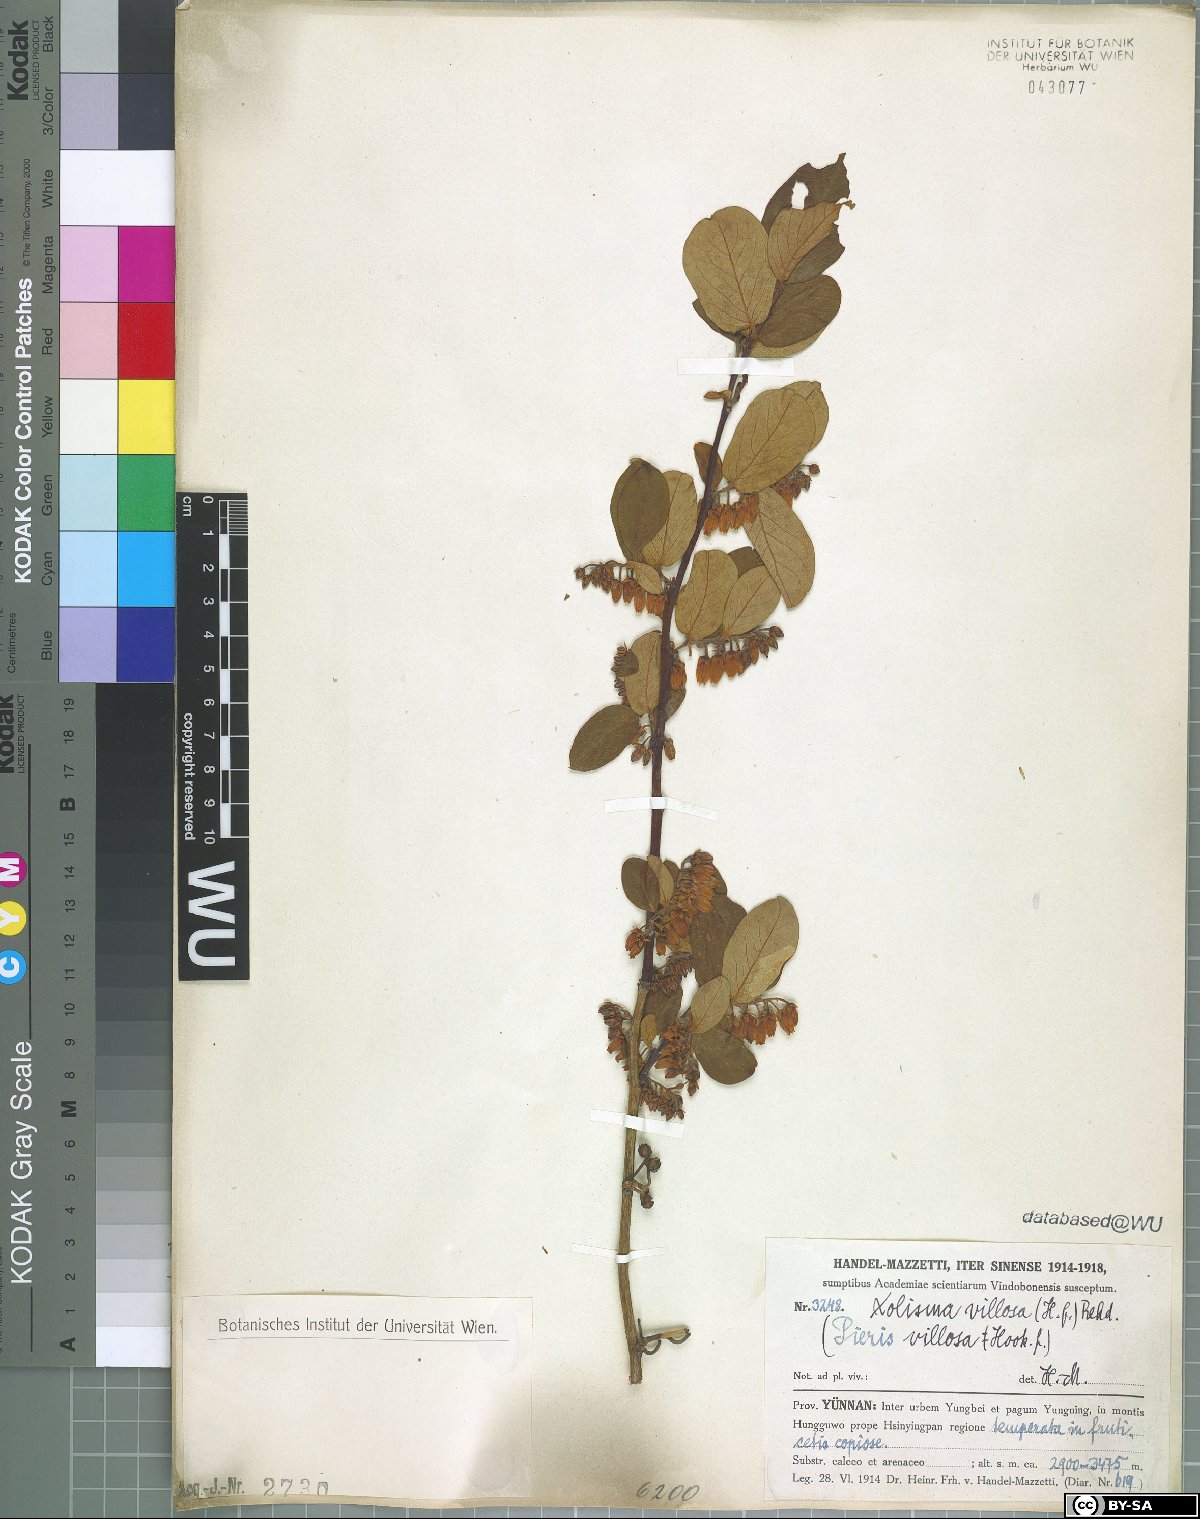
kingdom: Plantae
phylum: Tracheophyta
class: Magnoliopsida
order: Ericales
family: Ericaceae
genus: Lyonia
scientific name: Lyonia villosa
